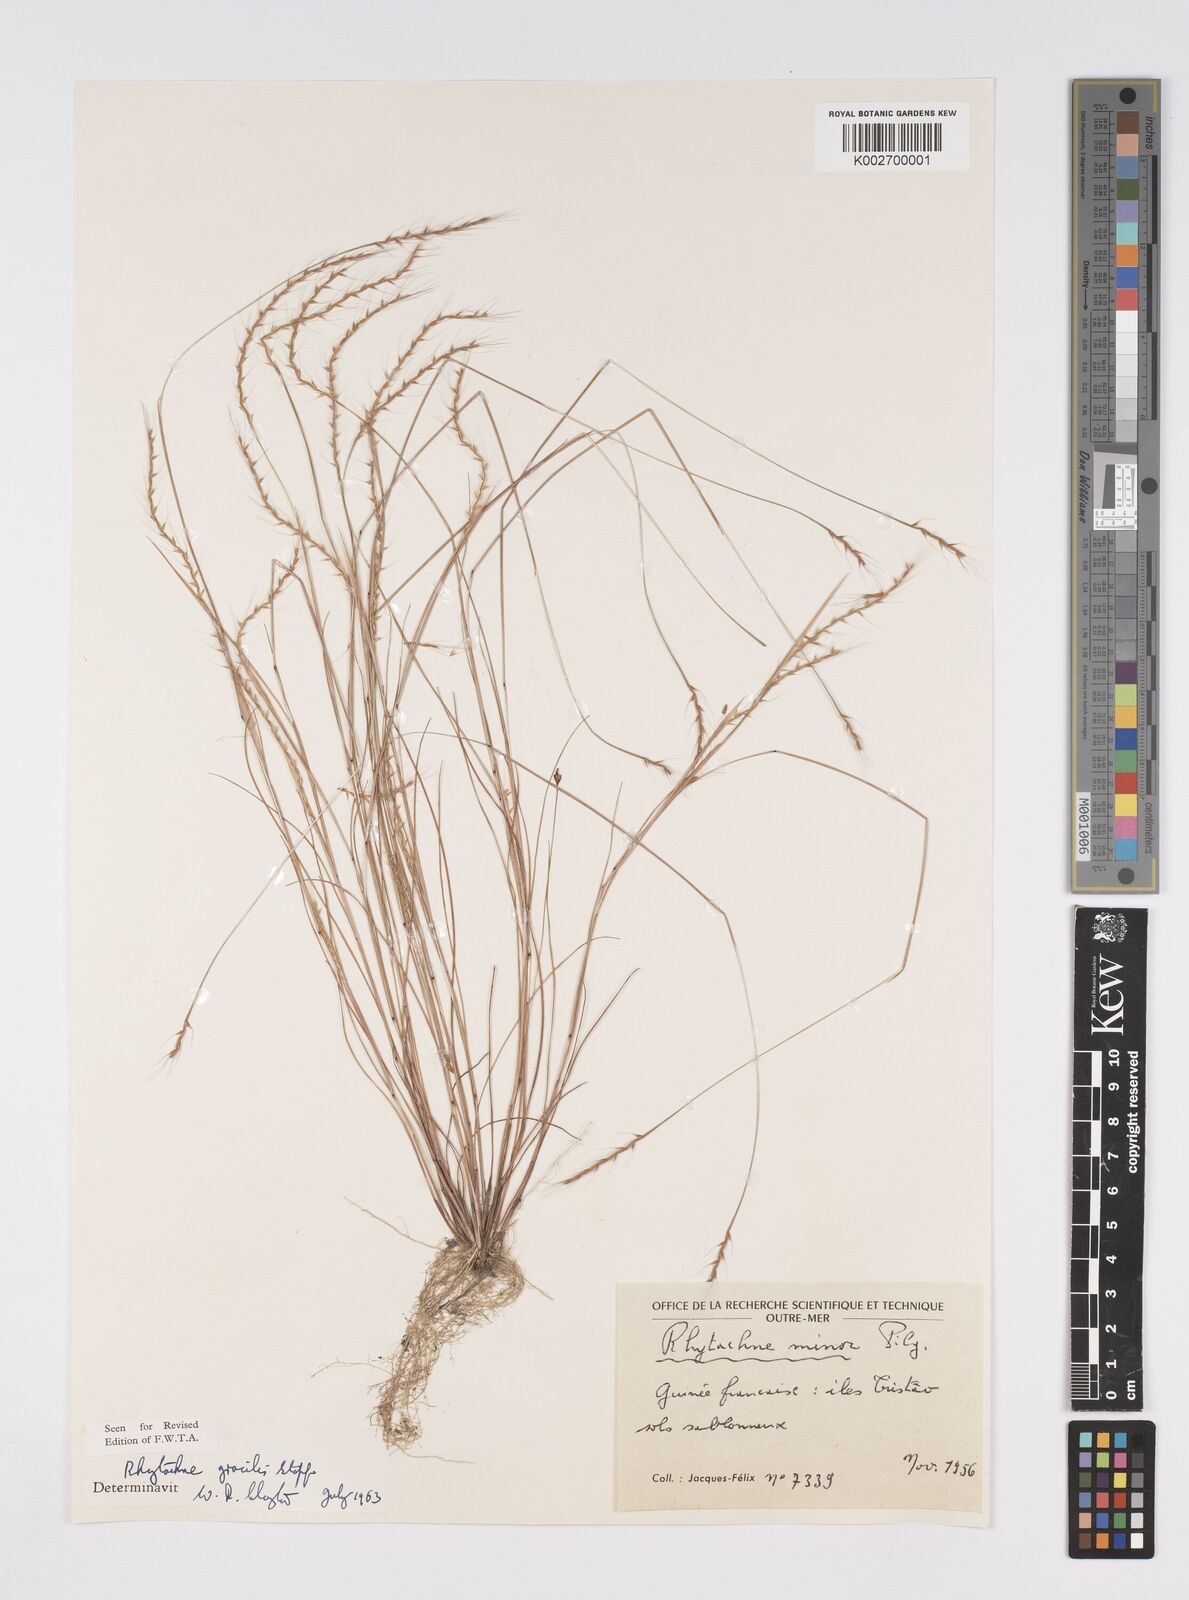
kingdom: Plantae
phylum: Tracheophyta
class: Liliopsida
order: Poales
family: Poaceae
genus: Rhytachne
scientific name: Rhytachne gracilis
